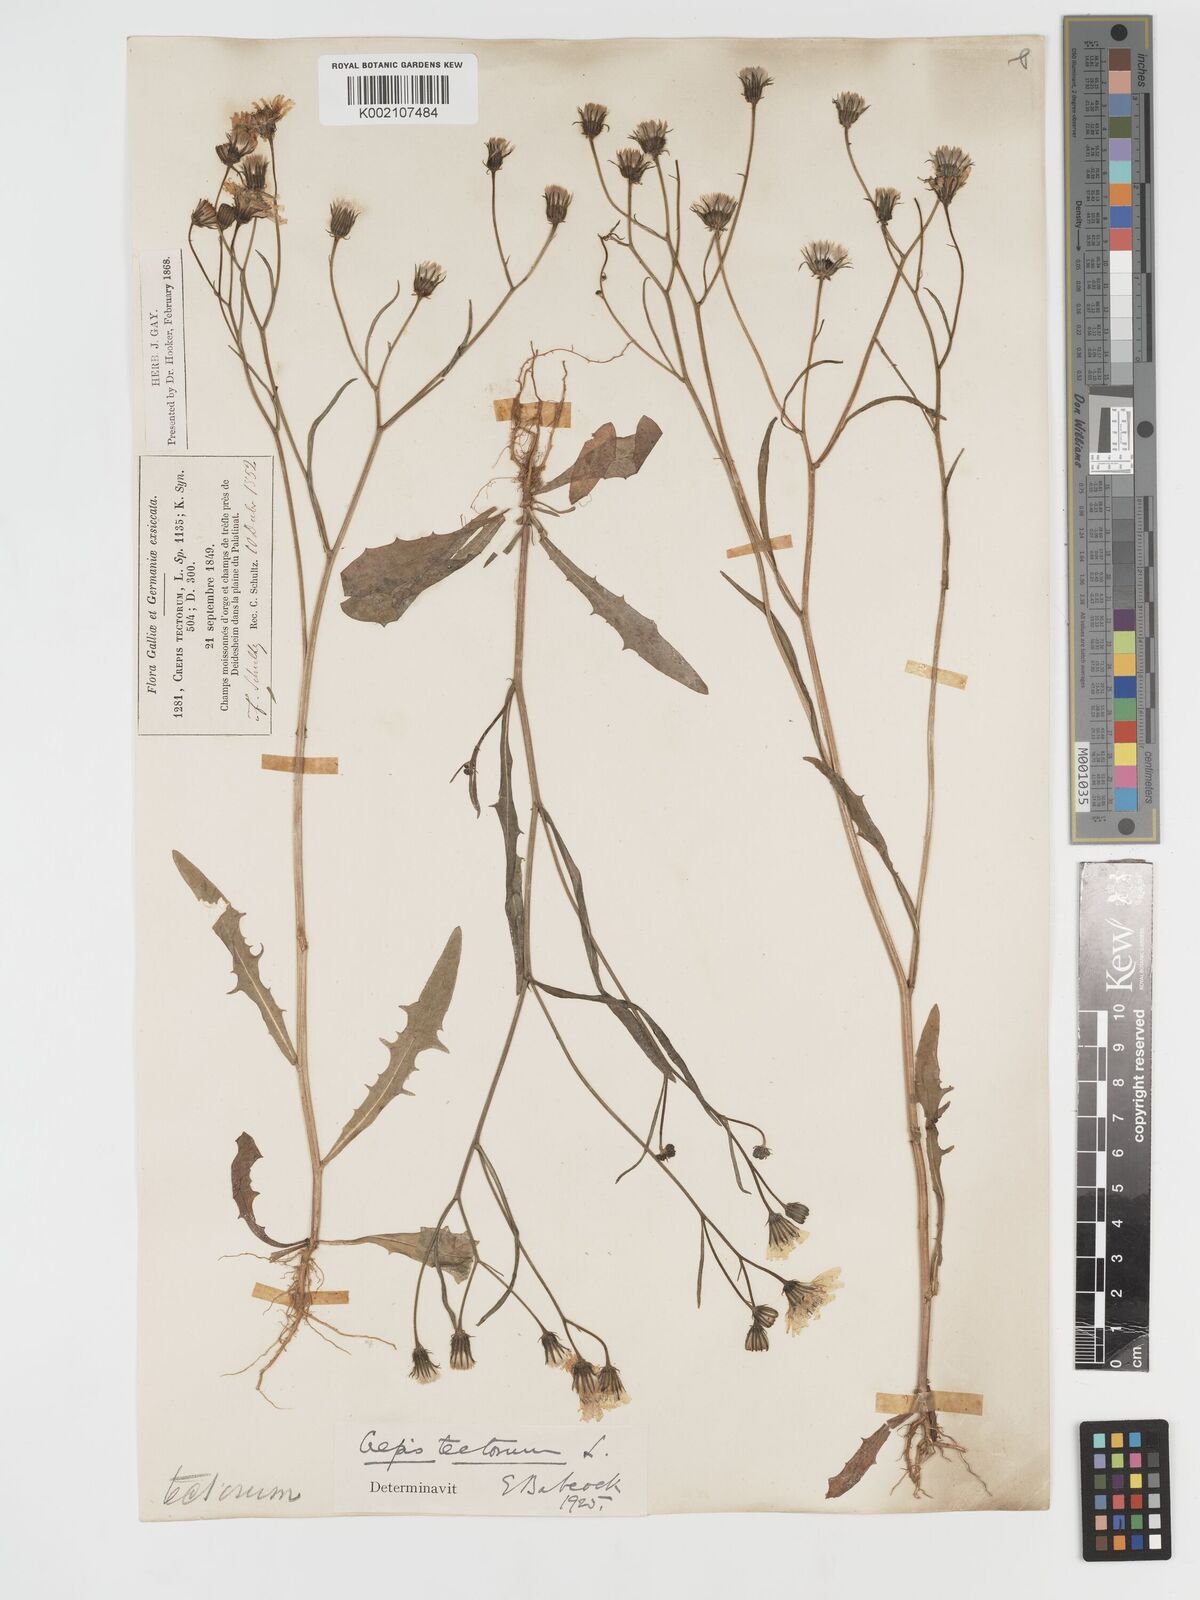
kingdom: Plantae
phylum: Tracheophyta
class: Magnoliopsida
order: Asterales
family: Asteraceae
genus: Crepis
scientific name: Crepis tectorum
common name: Narrow-leaved hawk's-beard
